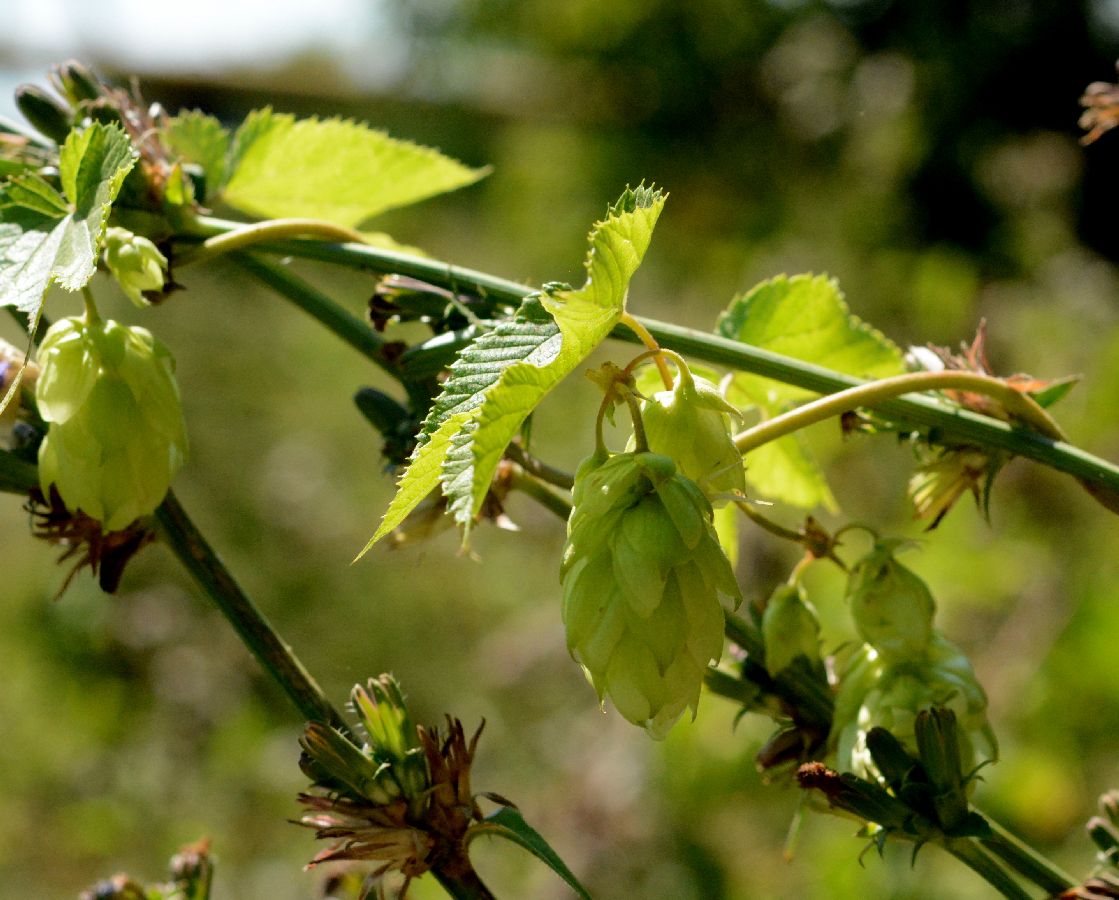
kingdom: Plantae
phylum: Tracheophyta
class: Magnoliopsida
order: Rosales
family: Cannabaceae
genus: Humulus
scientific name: Humulus lupulus
